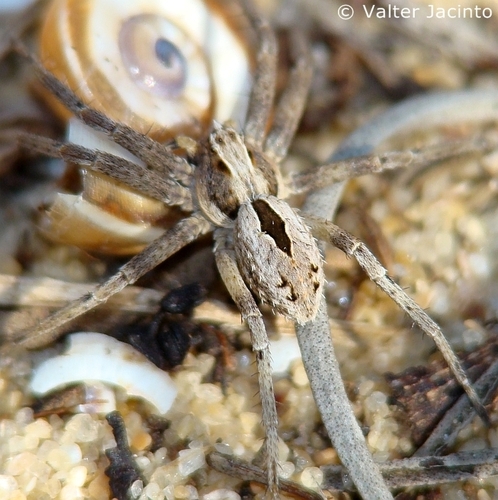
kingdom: Animalia
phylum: Arthropoda
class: Arachnida
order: Araneae
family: Philodromidae
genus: Thanatus
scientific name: Thanatus lineatipes
